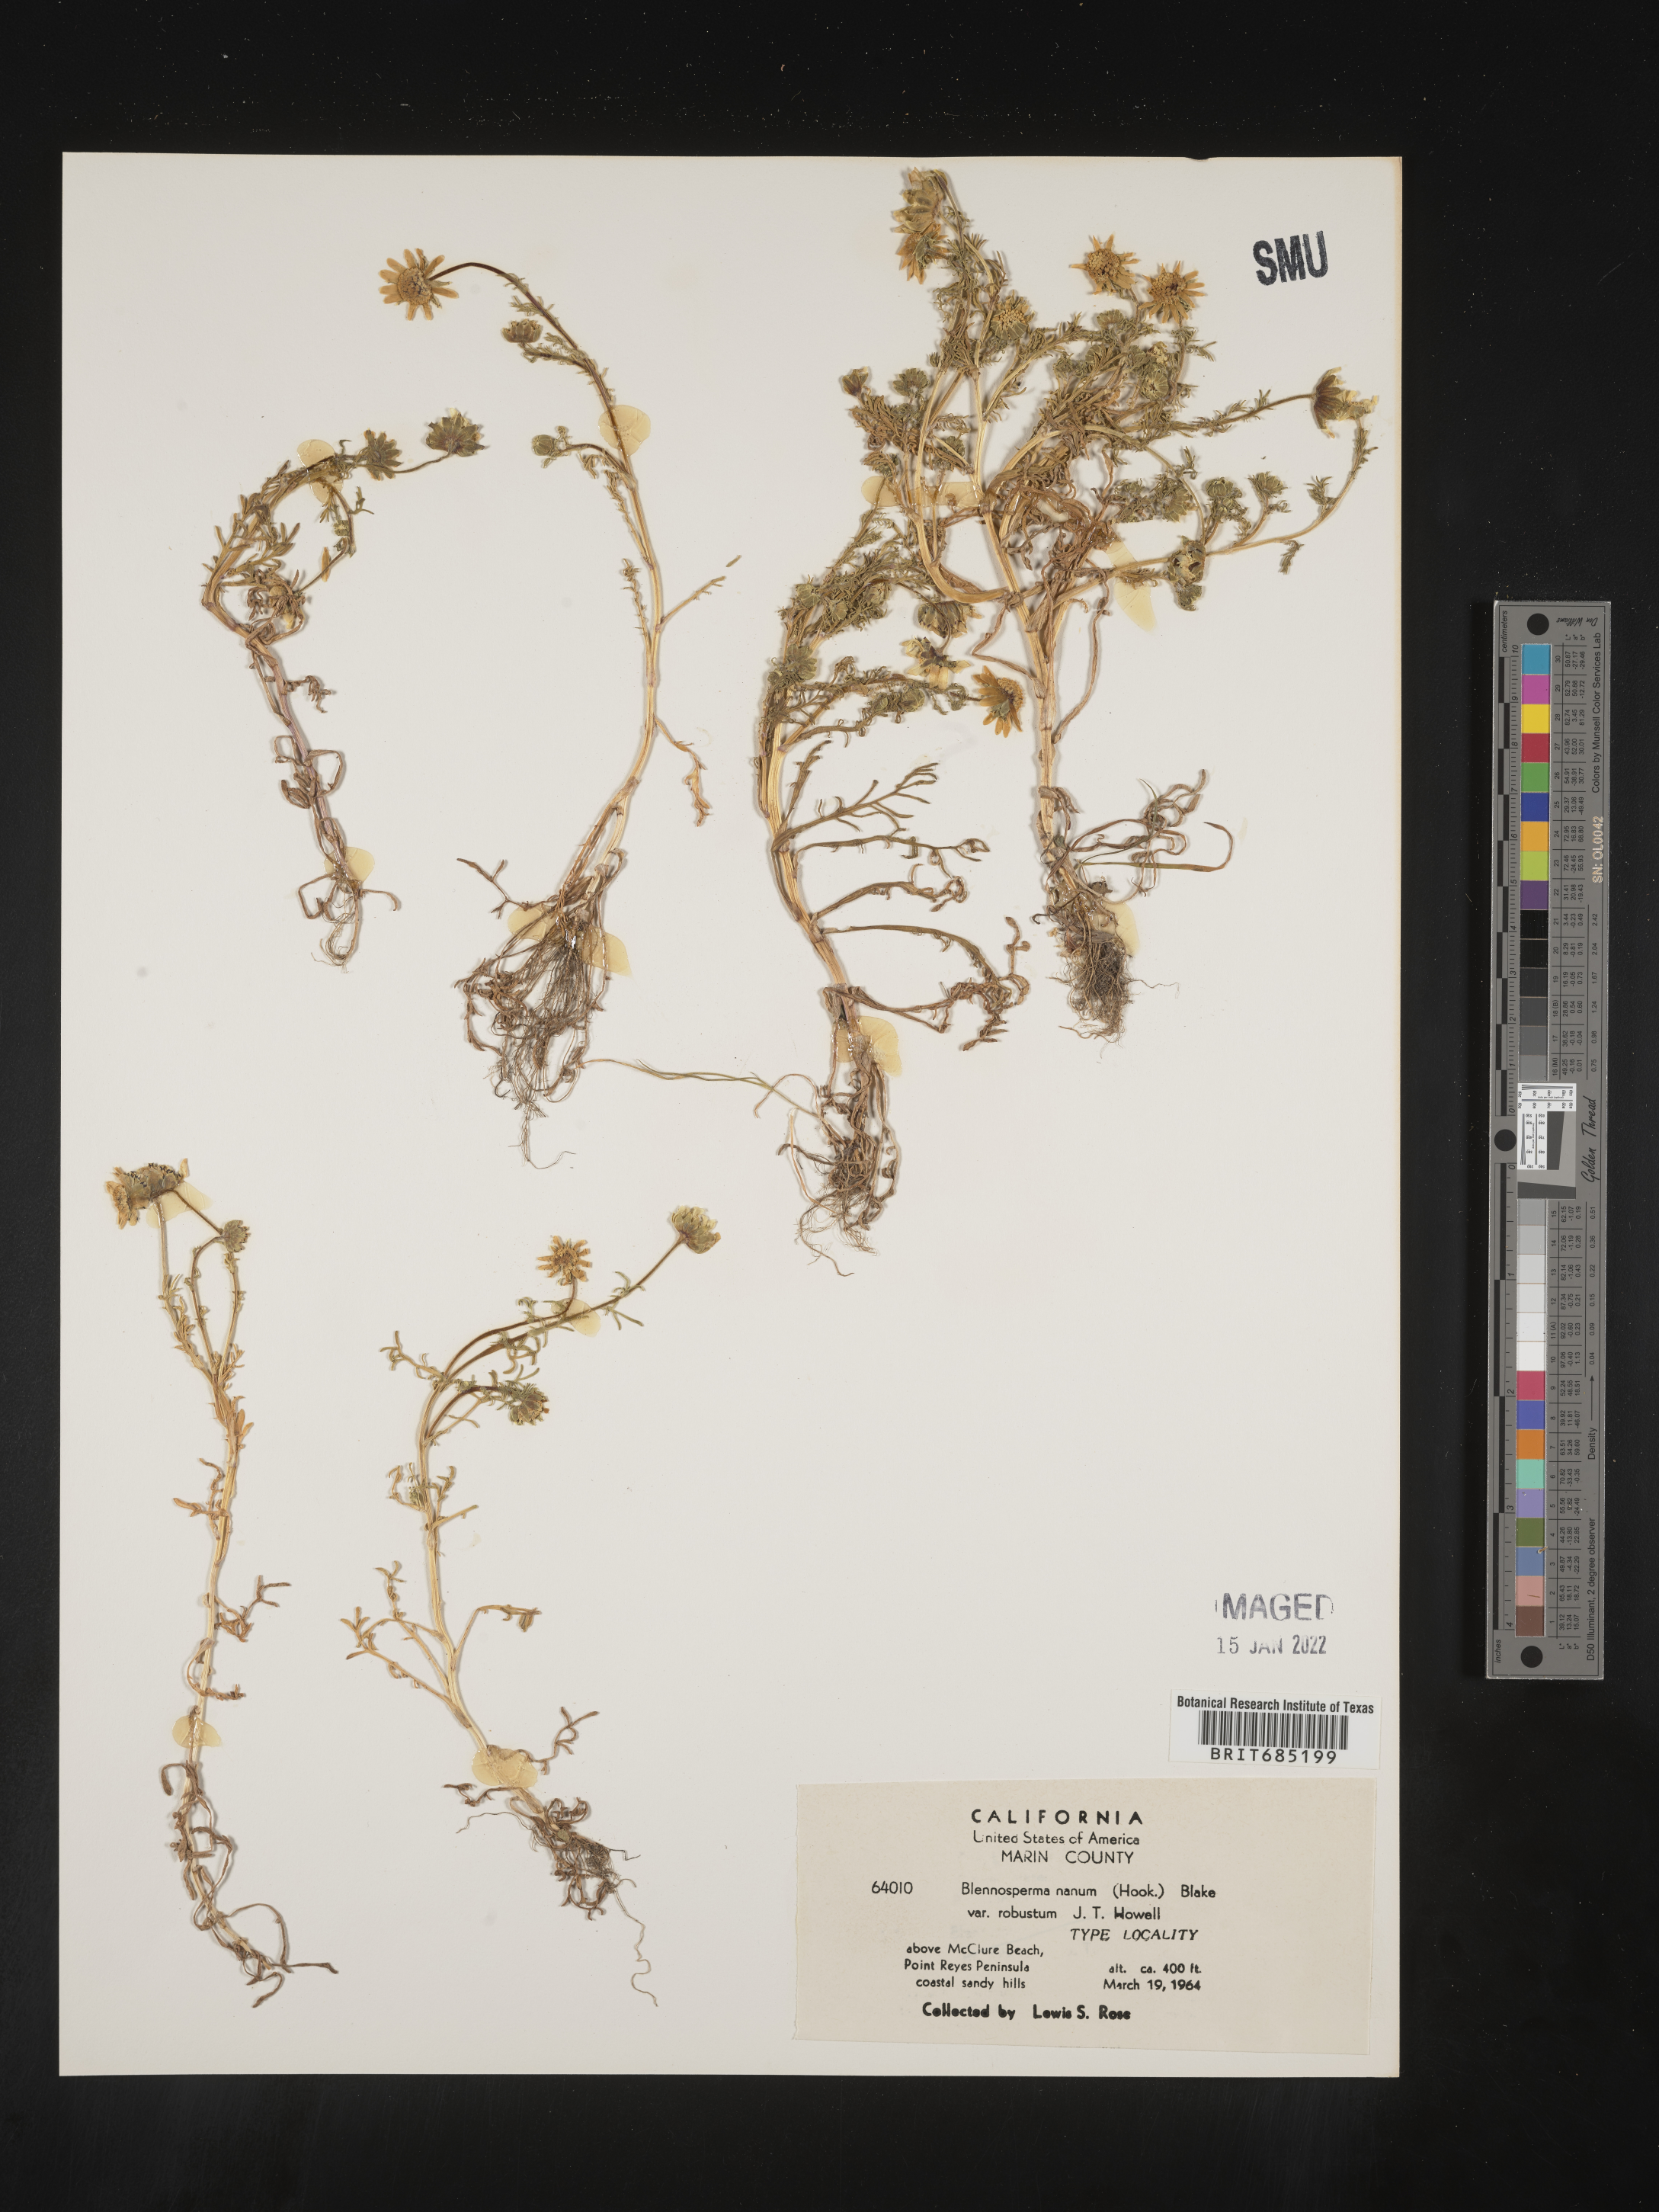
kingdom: Plantae
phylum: Tracheophyta
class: Magnoliopsida
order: Asterales
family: Asteraceae
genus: Blennosperma
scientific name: Blennosperma
